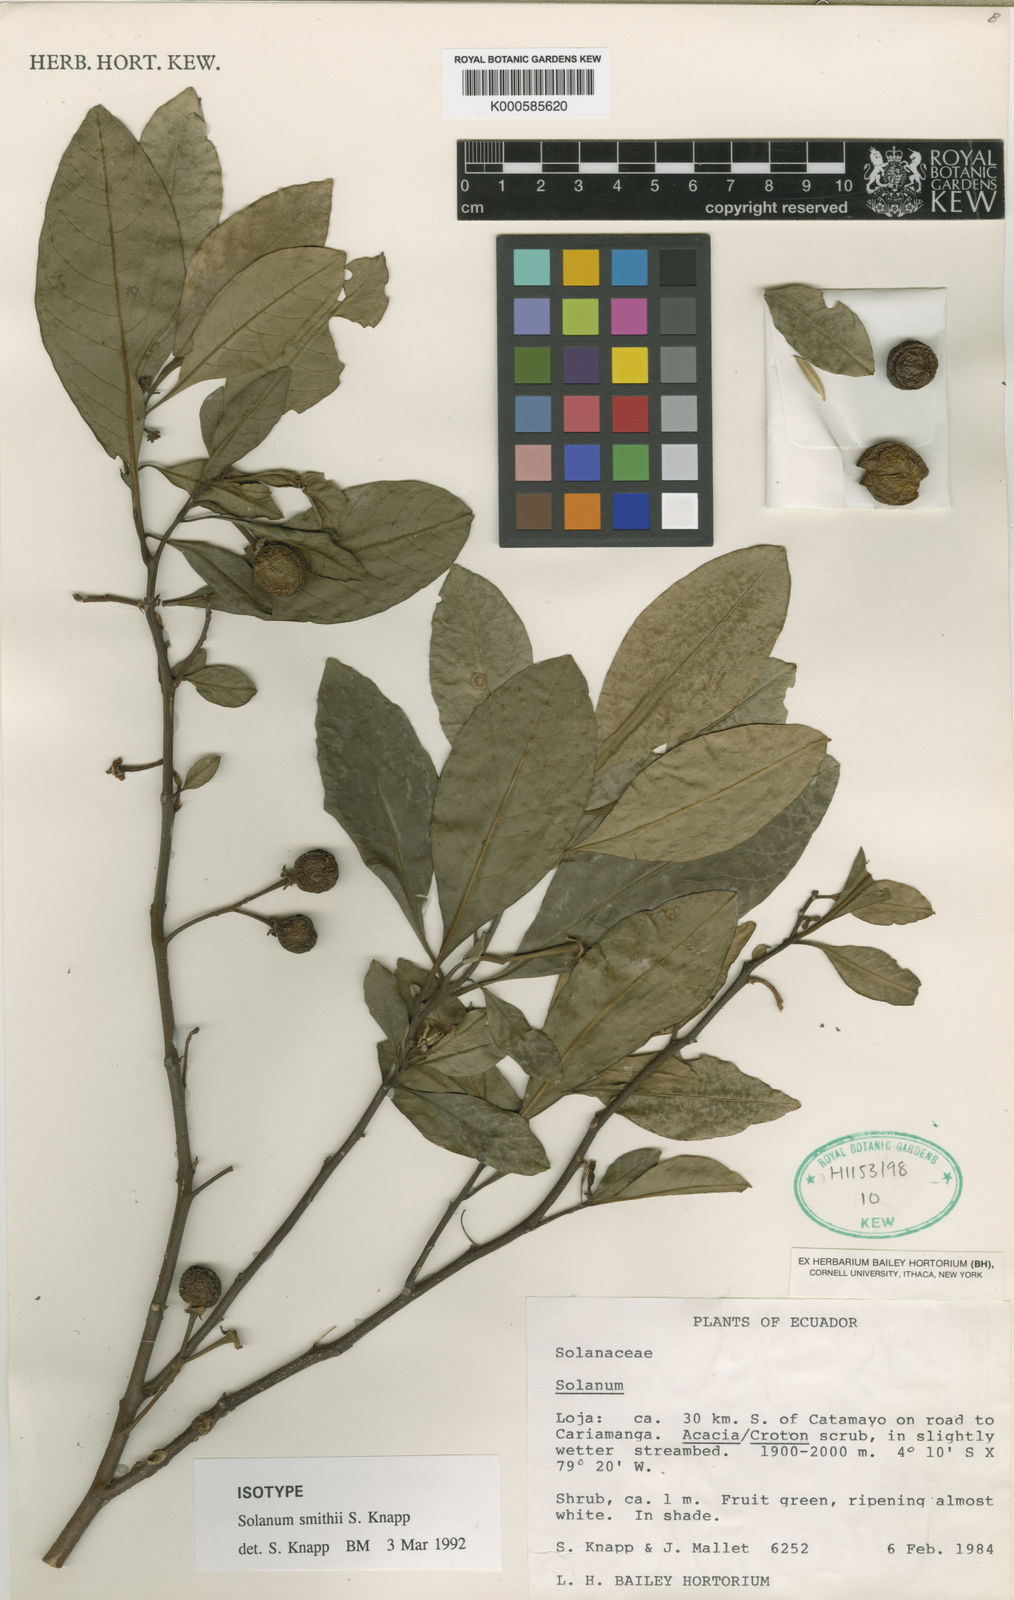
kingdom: Plantae
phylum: Tracheophyta
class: Magnoliopsida
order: Solanales
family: Solanaceae
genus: Solanum
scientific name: Solanum smithii
